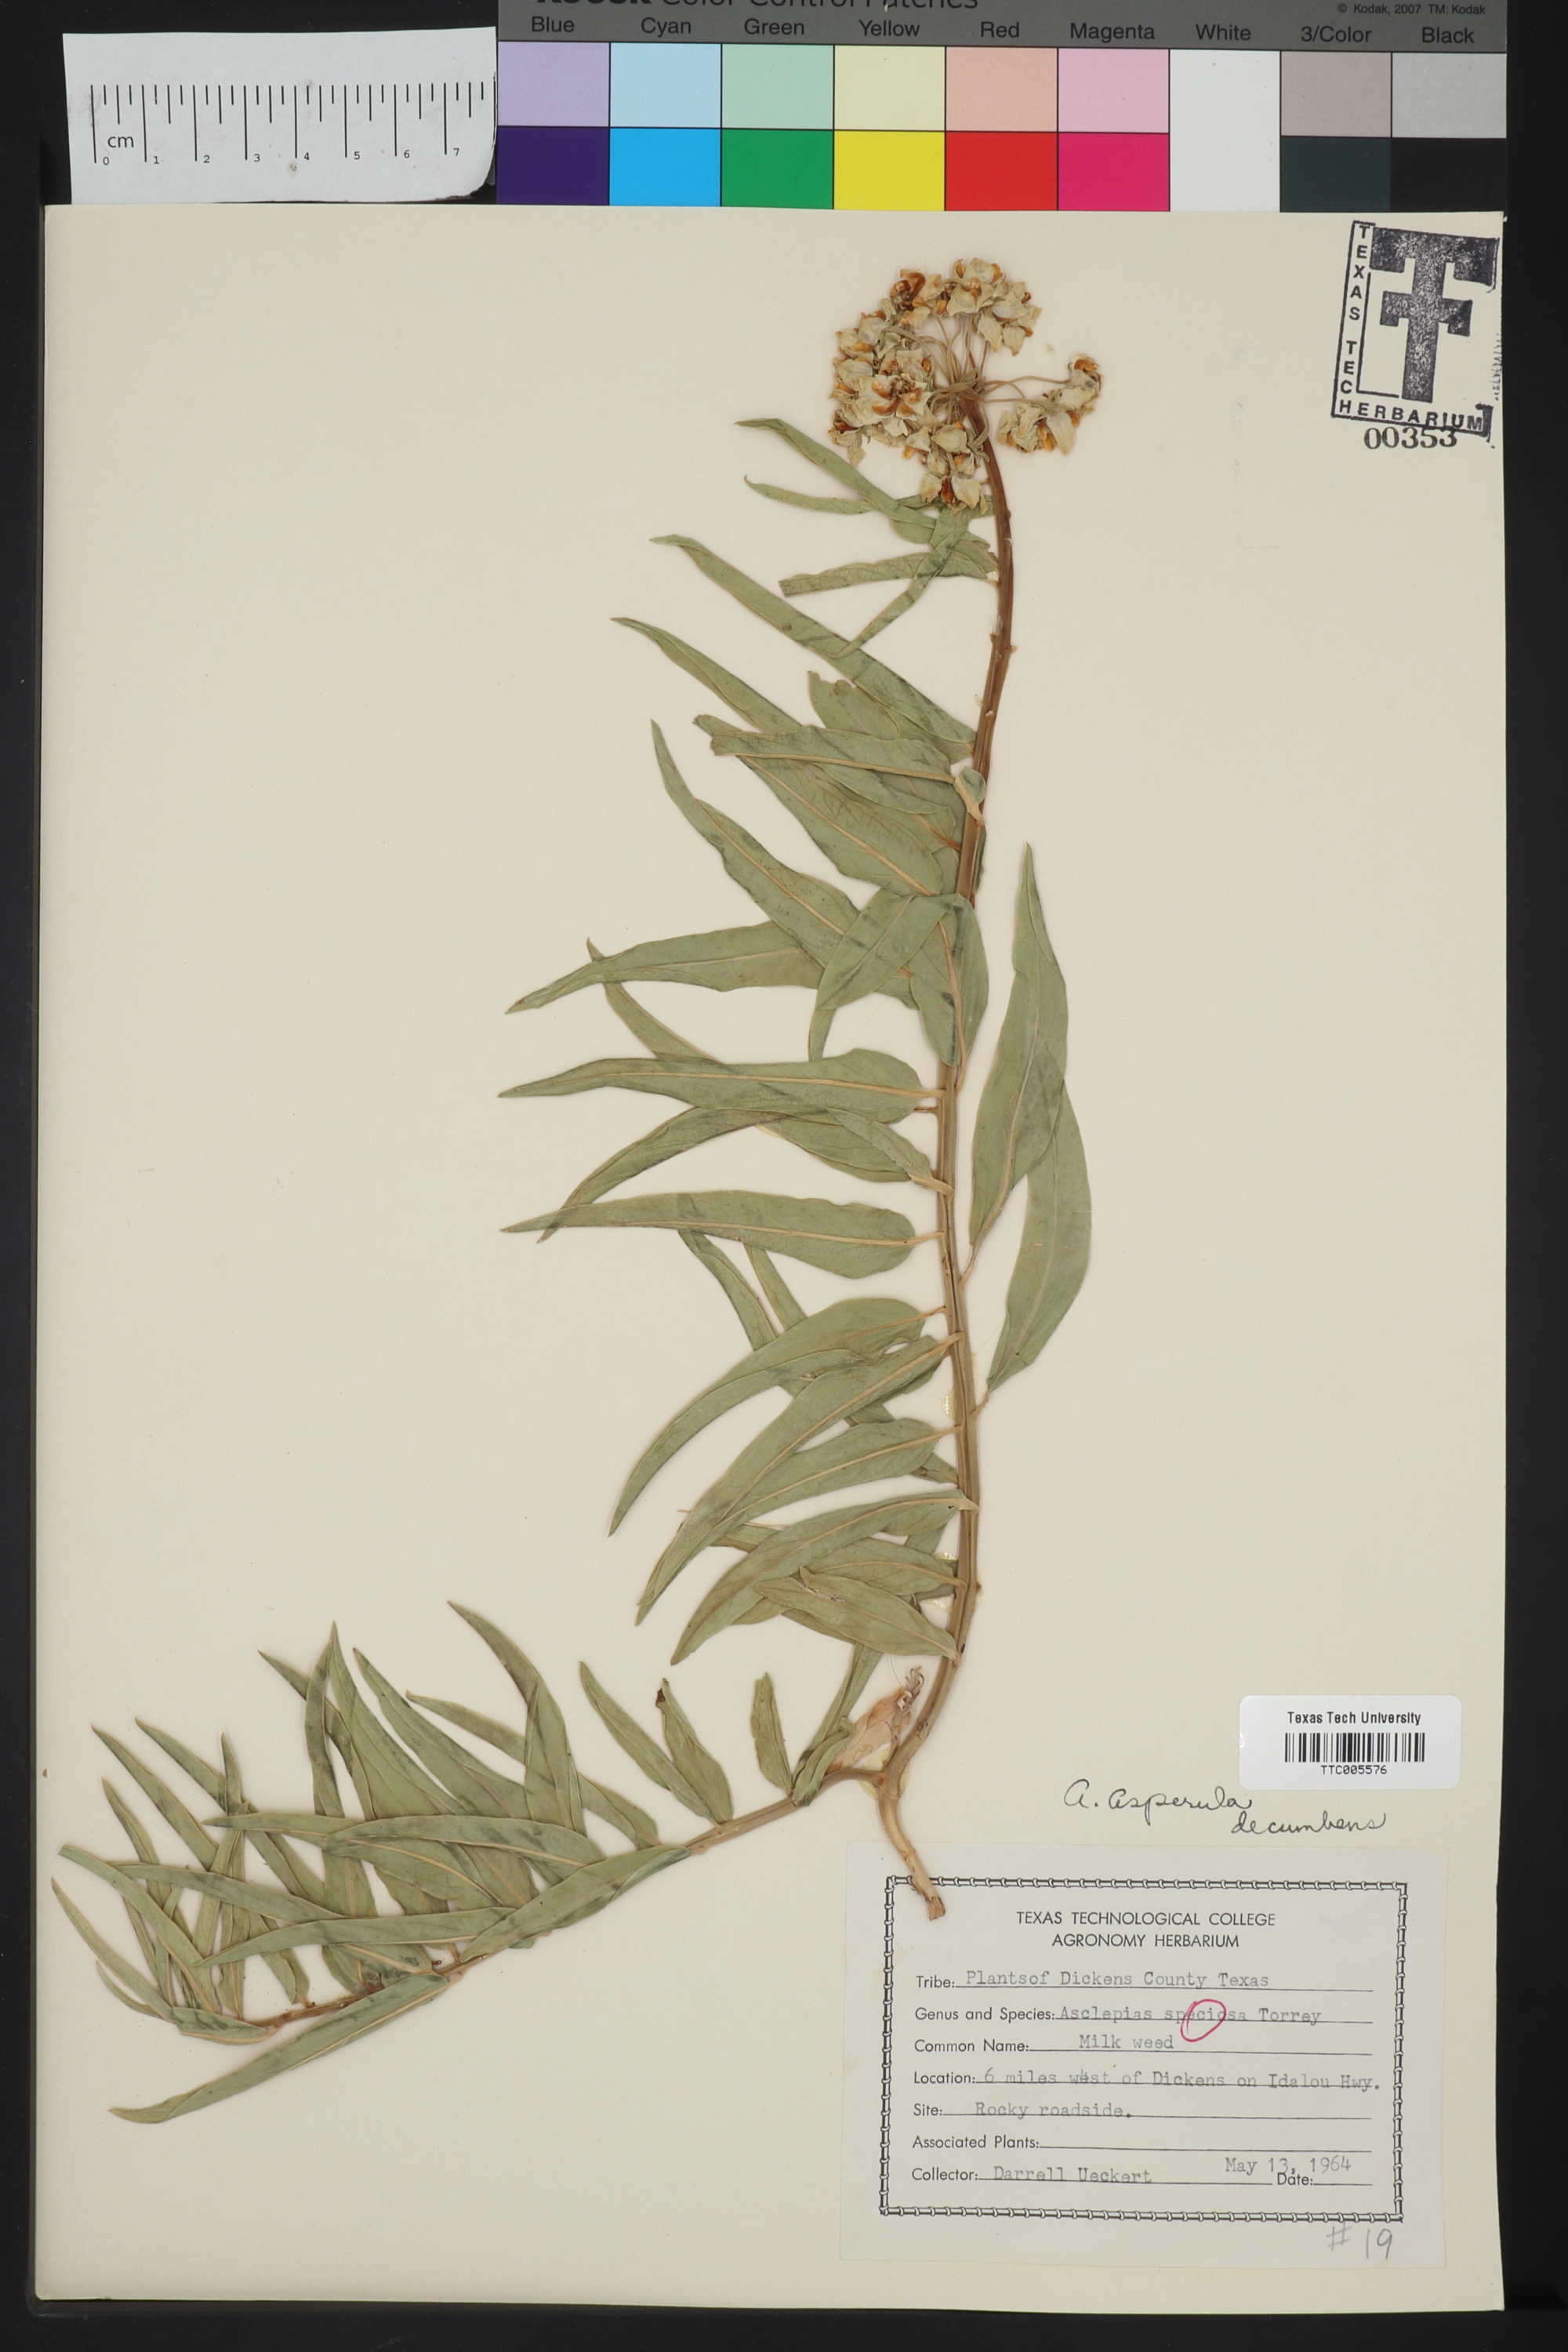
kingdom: Plantae
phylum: Tracheophyta
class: Magnoliopsida
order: Gentianales
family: Apocynaceae
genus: Asclepias
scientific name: Asclepias asperula
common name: Antelope horns
